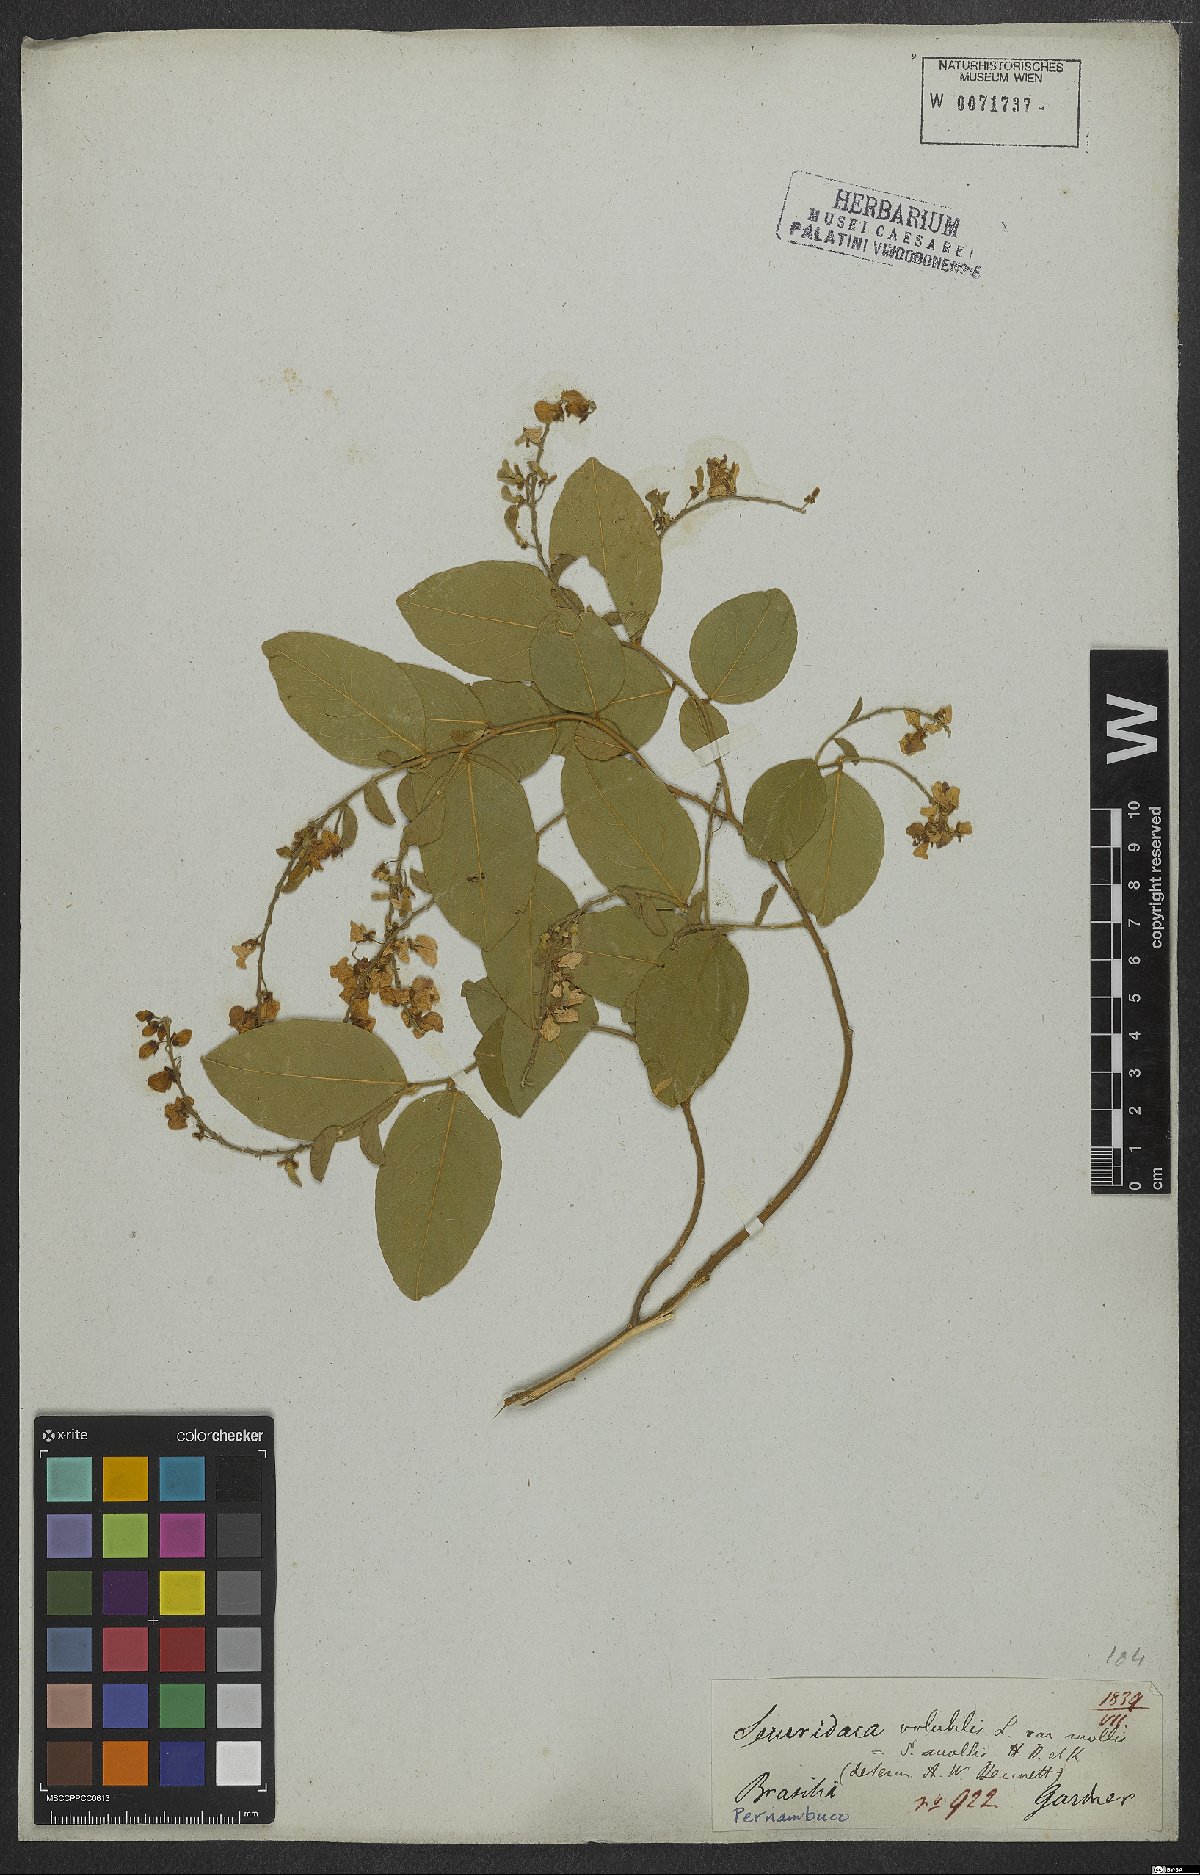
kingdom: Plantae
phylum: Tracheophyta
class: Magnoliopsida
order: Fabales
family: Polygalaceae
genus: Securidaca
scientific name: Securidaca coriacea
